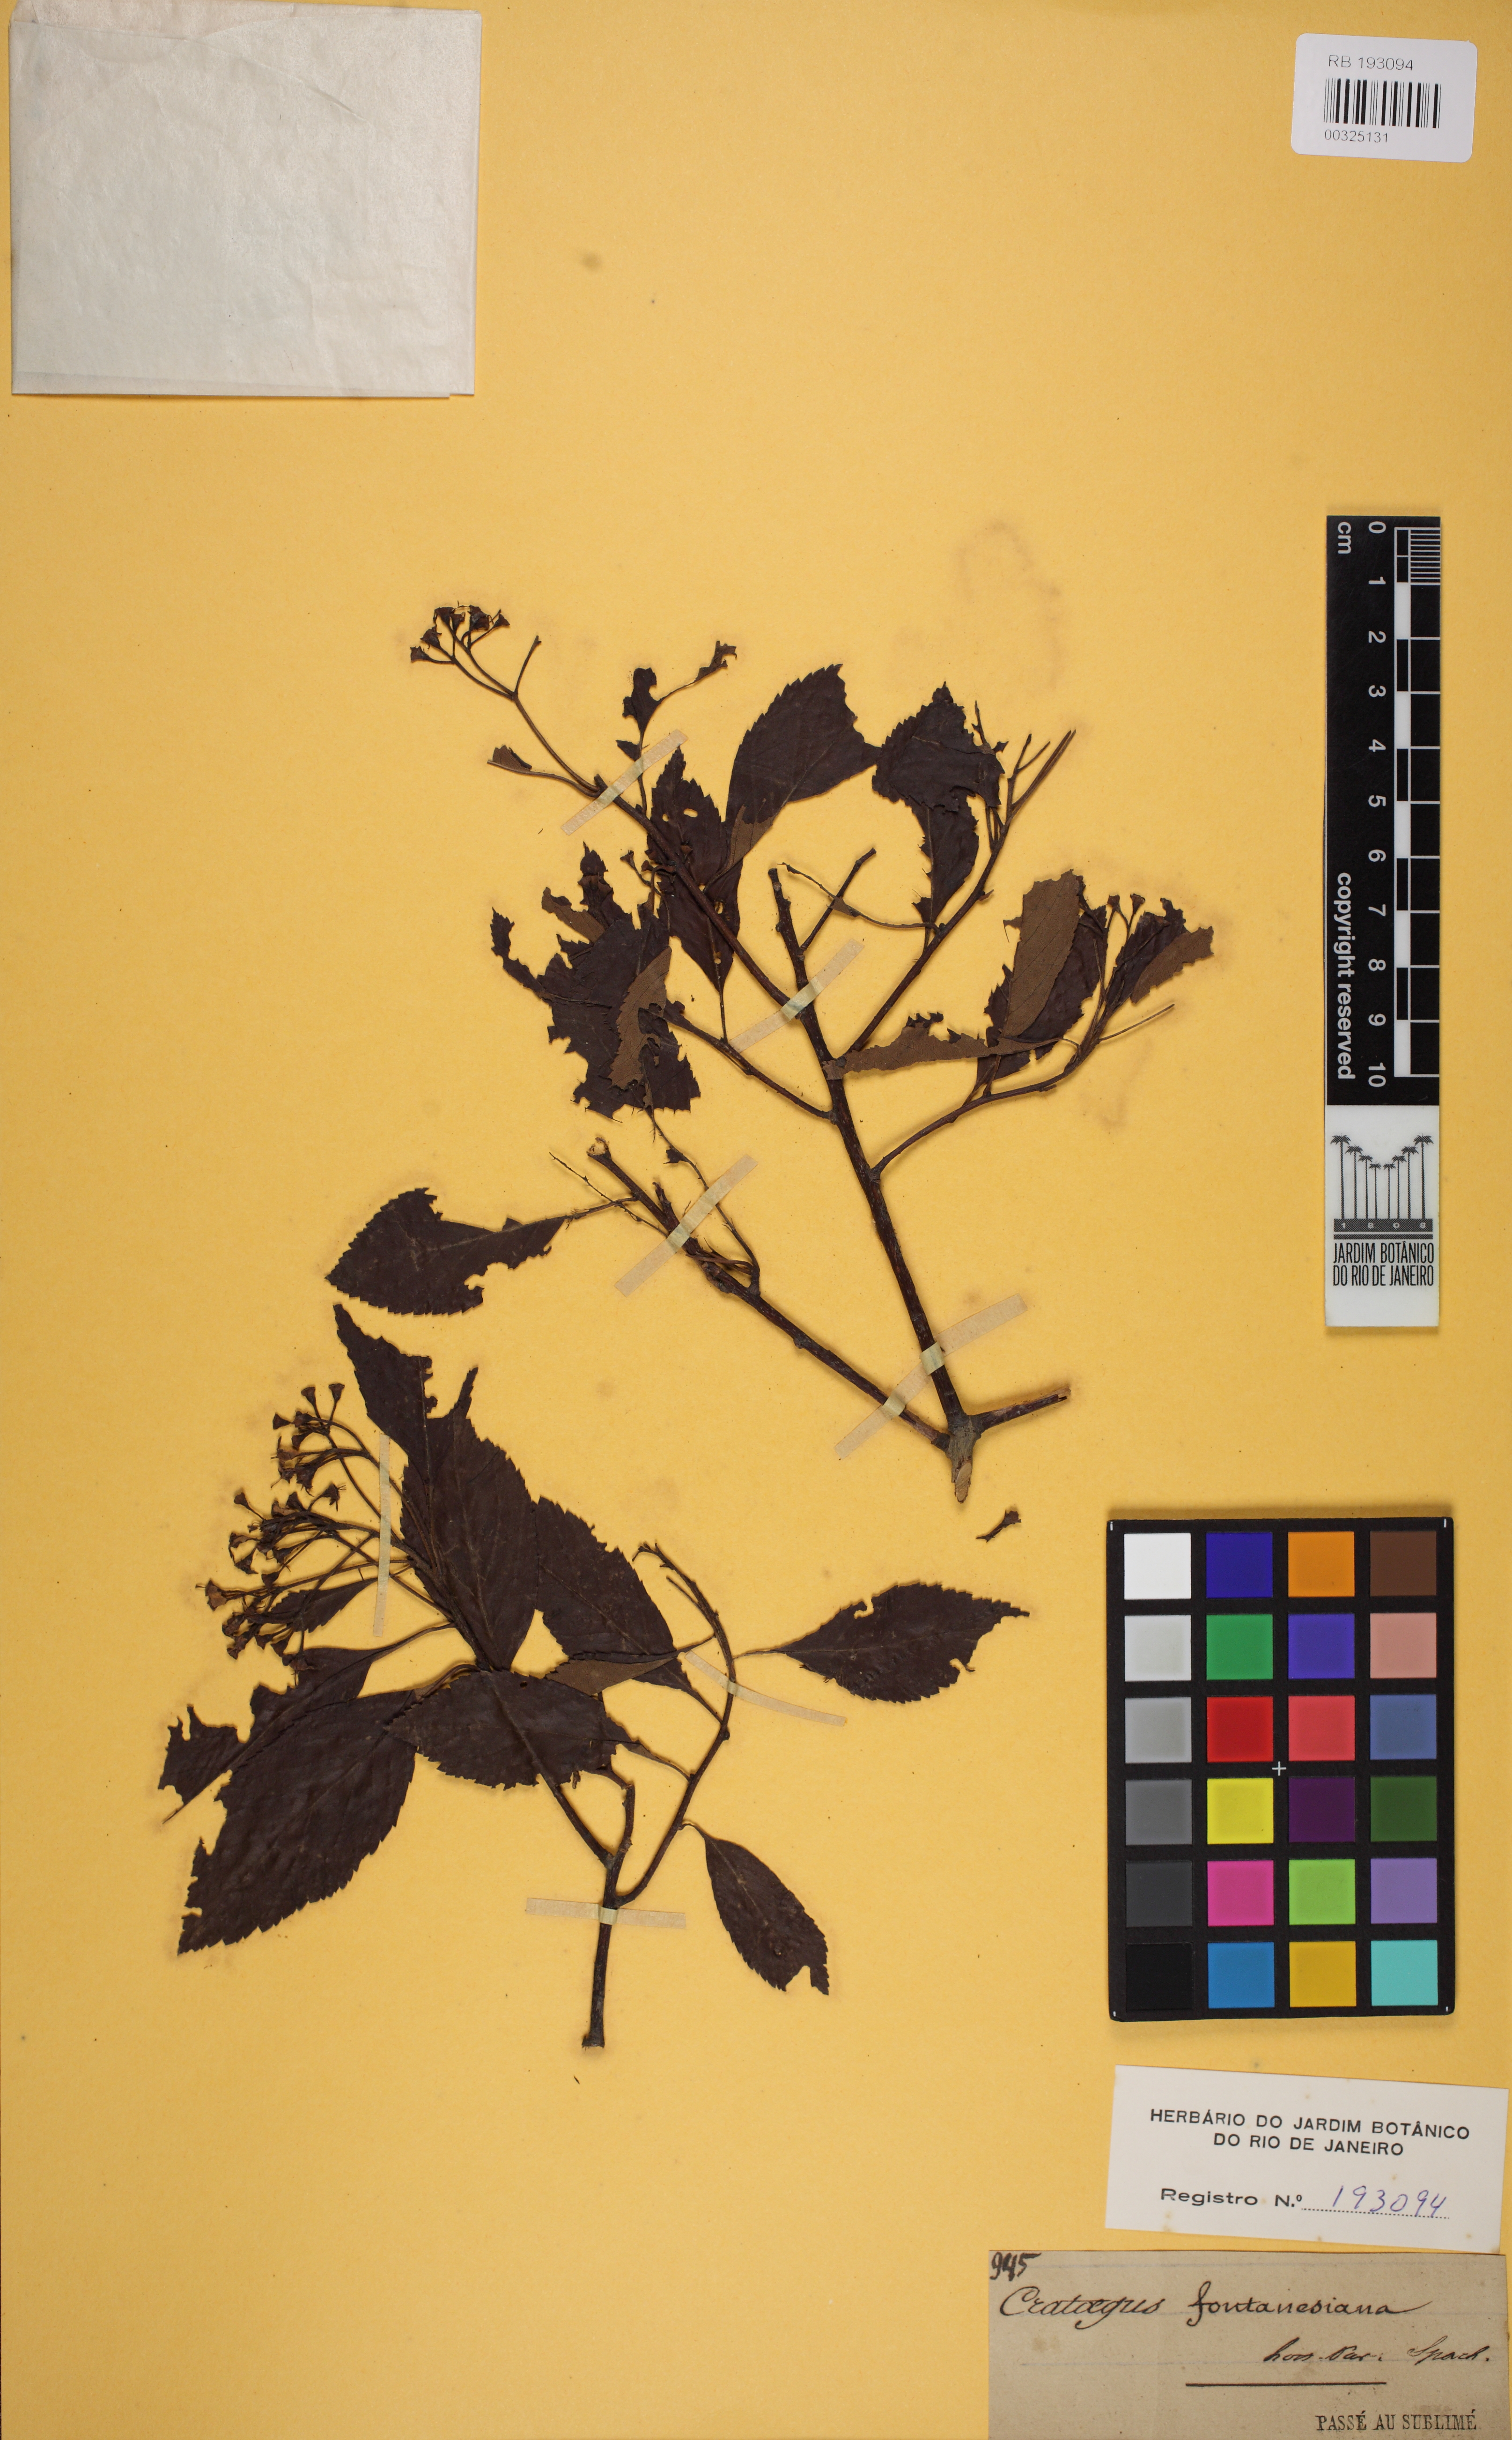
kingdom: Plantae
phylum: Tracheophyta
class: Magnoliopsida
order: Rosales
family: Rosaceae
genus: Crataegus
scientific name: Crataegus calpodendron
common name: Pear hawthorn
